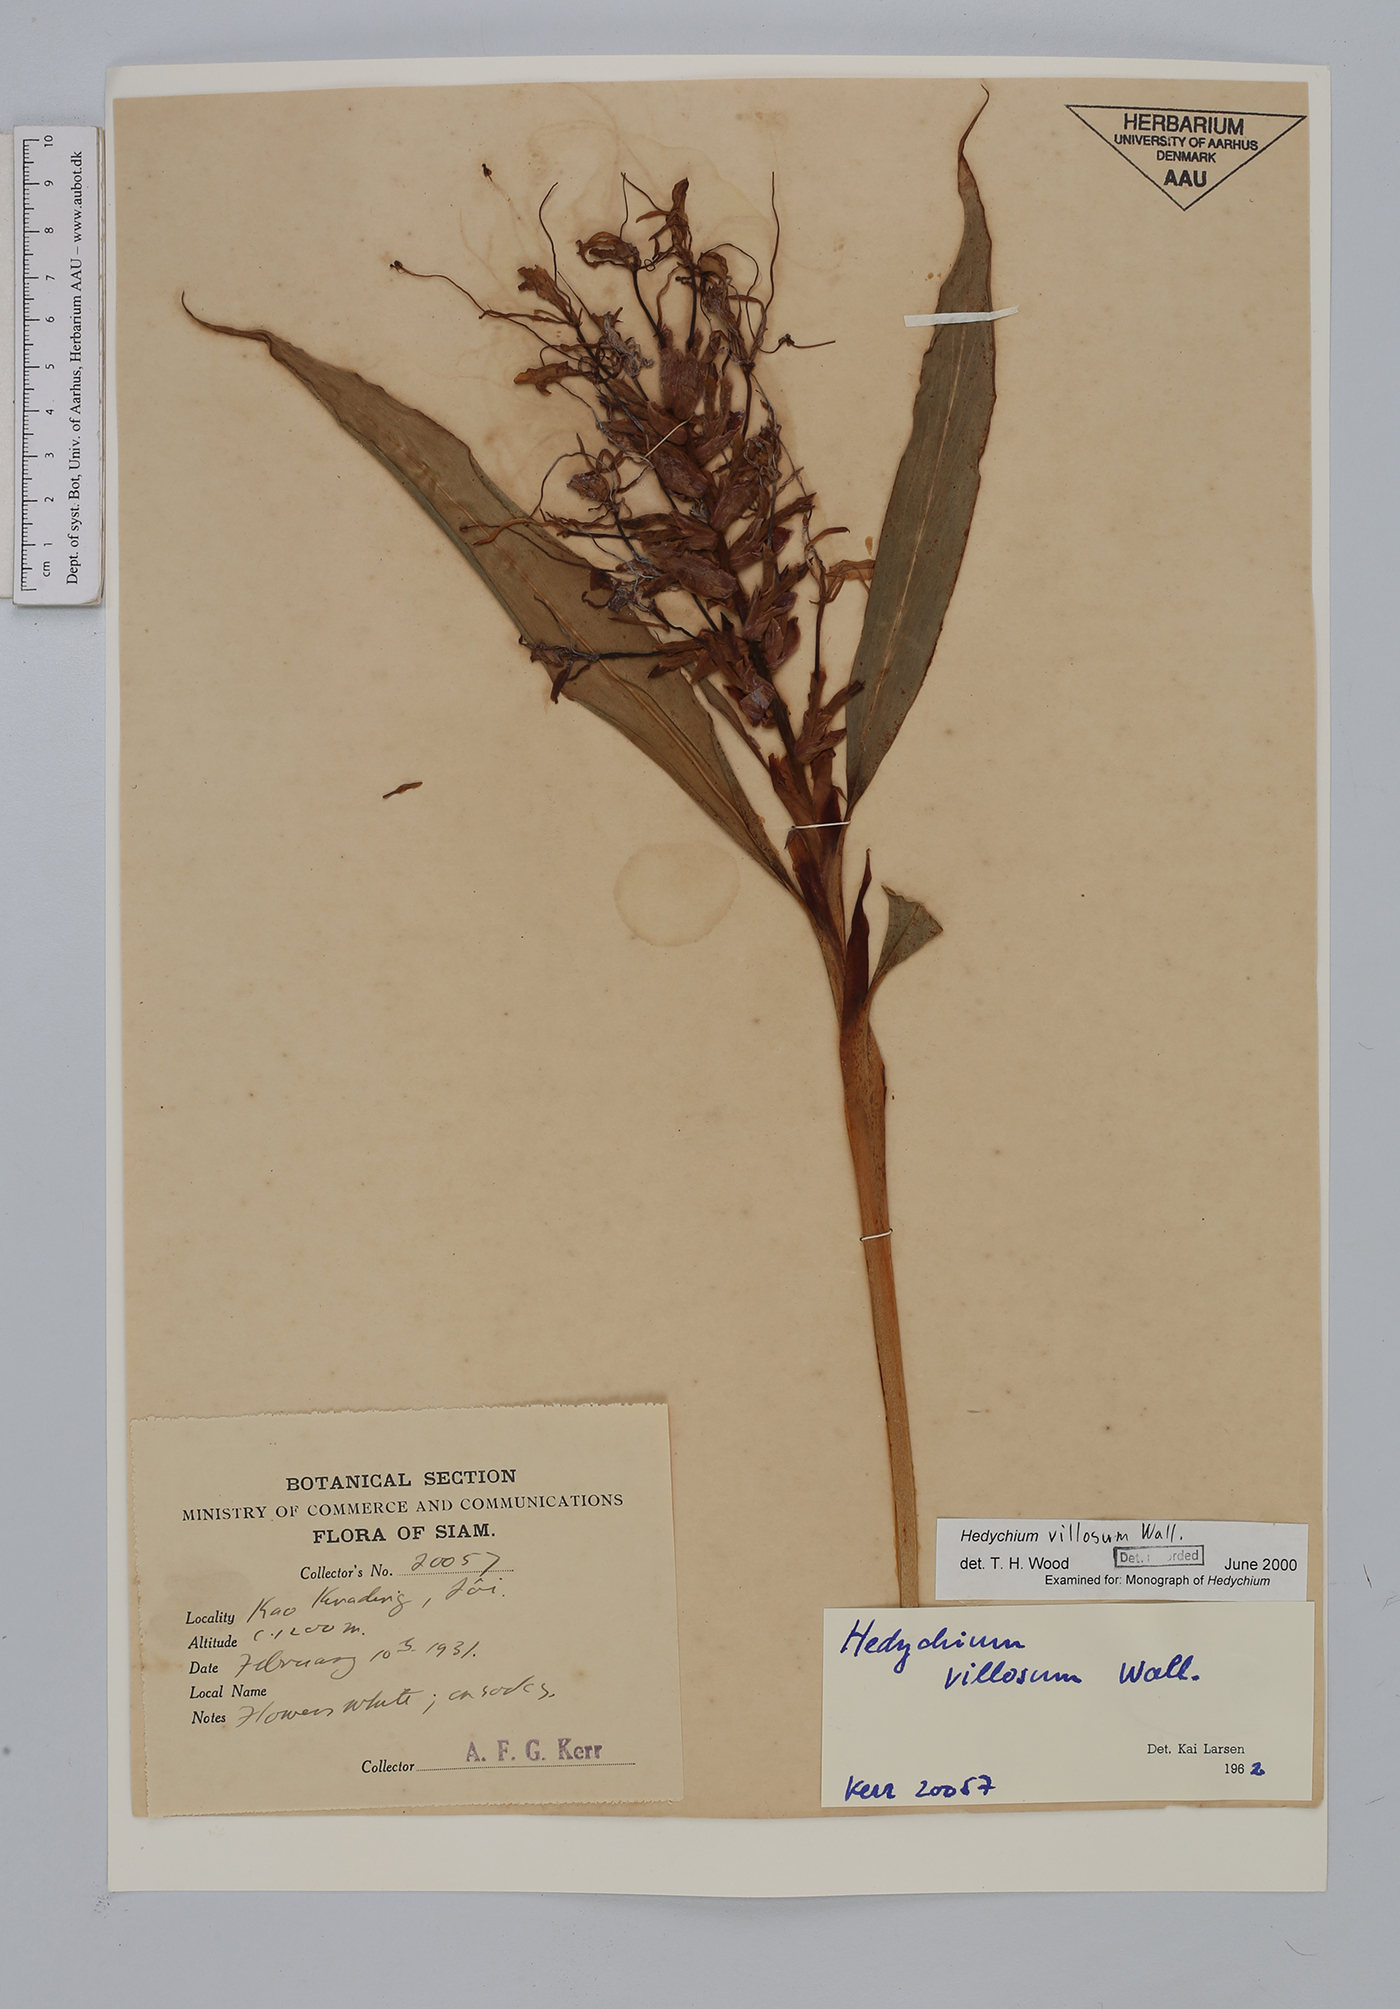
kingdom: Plantae
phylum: Tracheophyta
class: Liliopsida
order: Zingiberales
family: Zingiberaceae
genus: Hedychium
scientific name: Hedychium villosum
